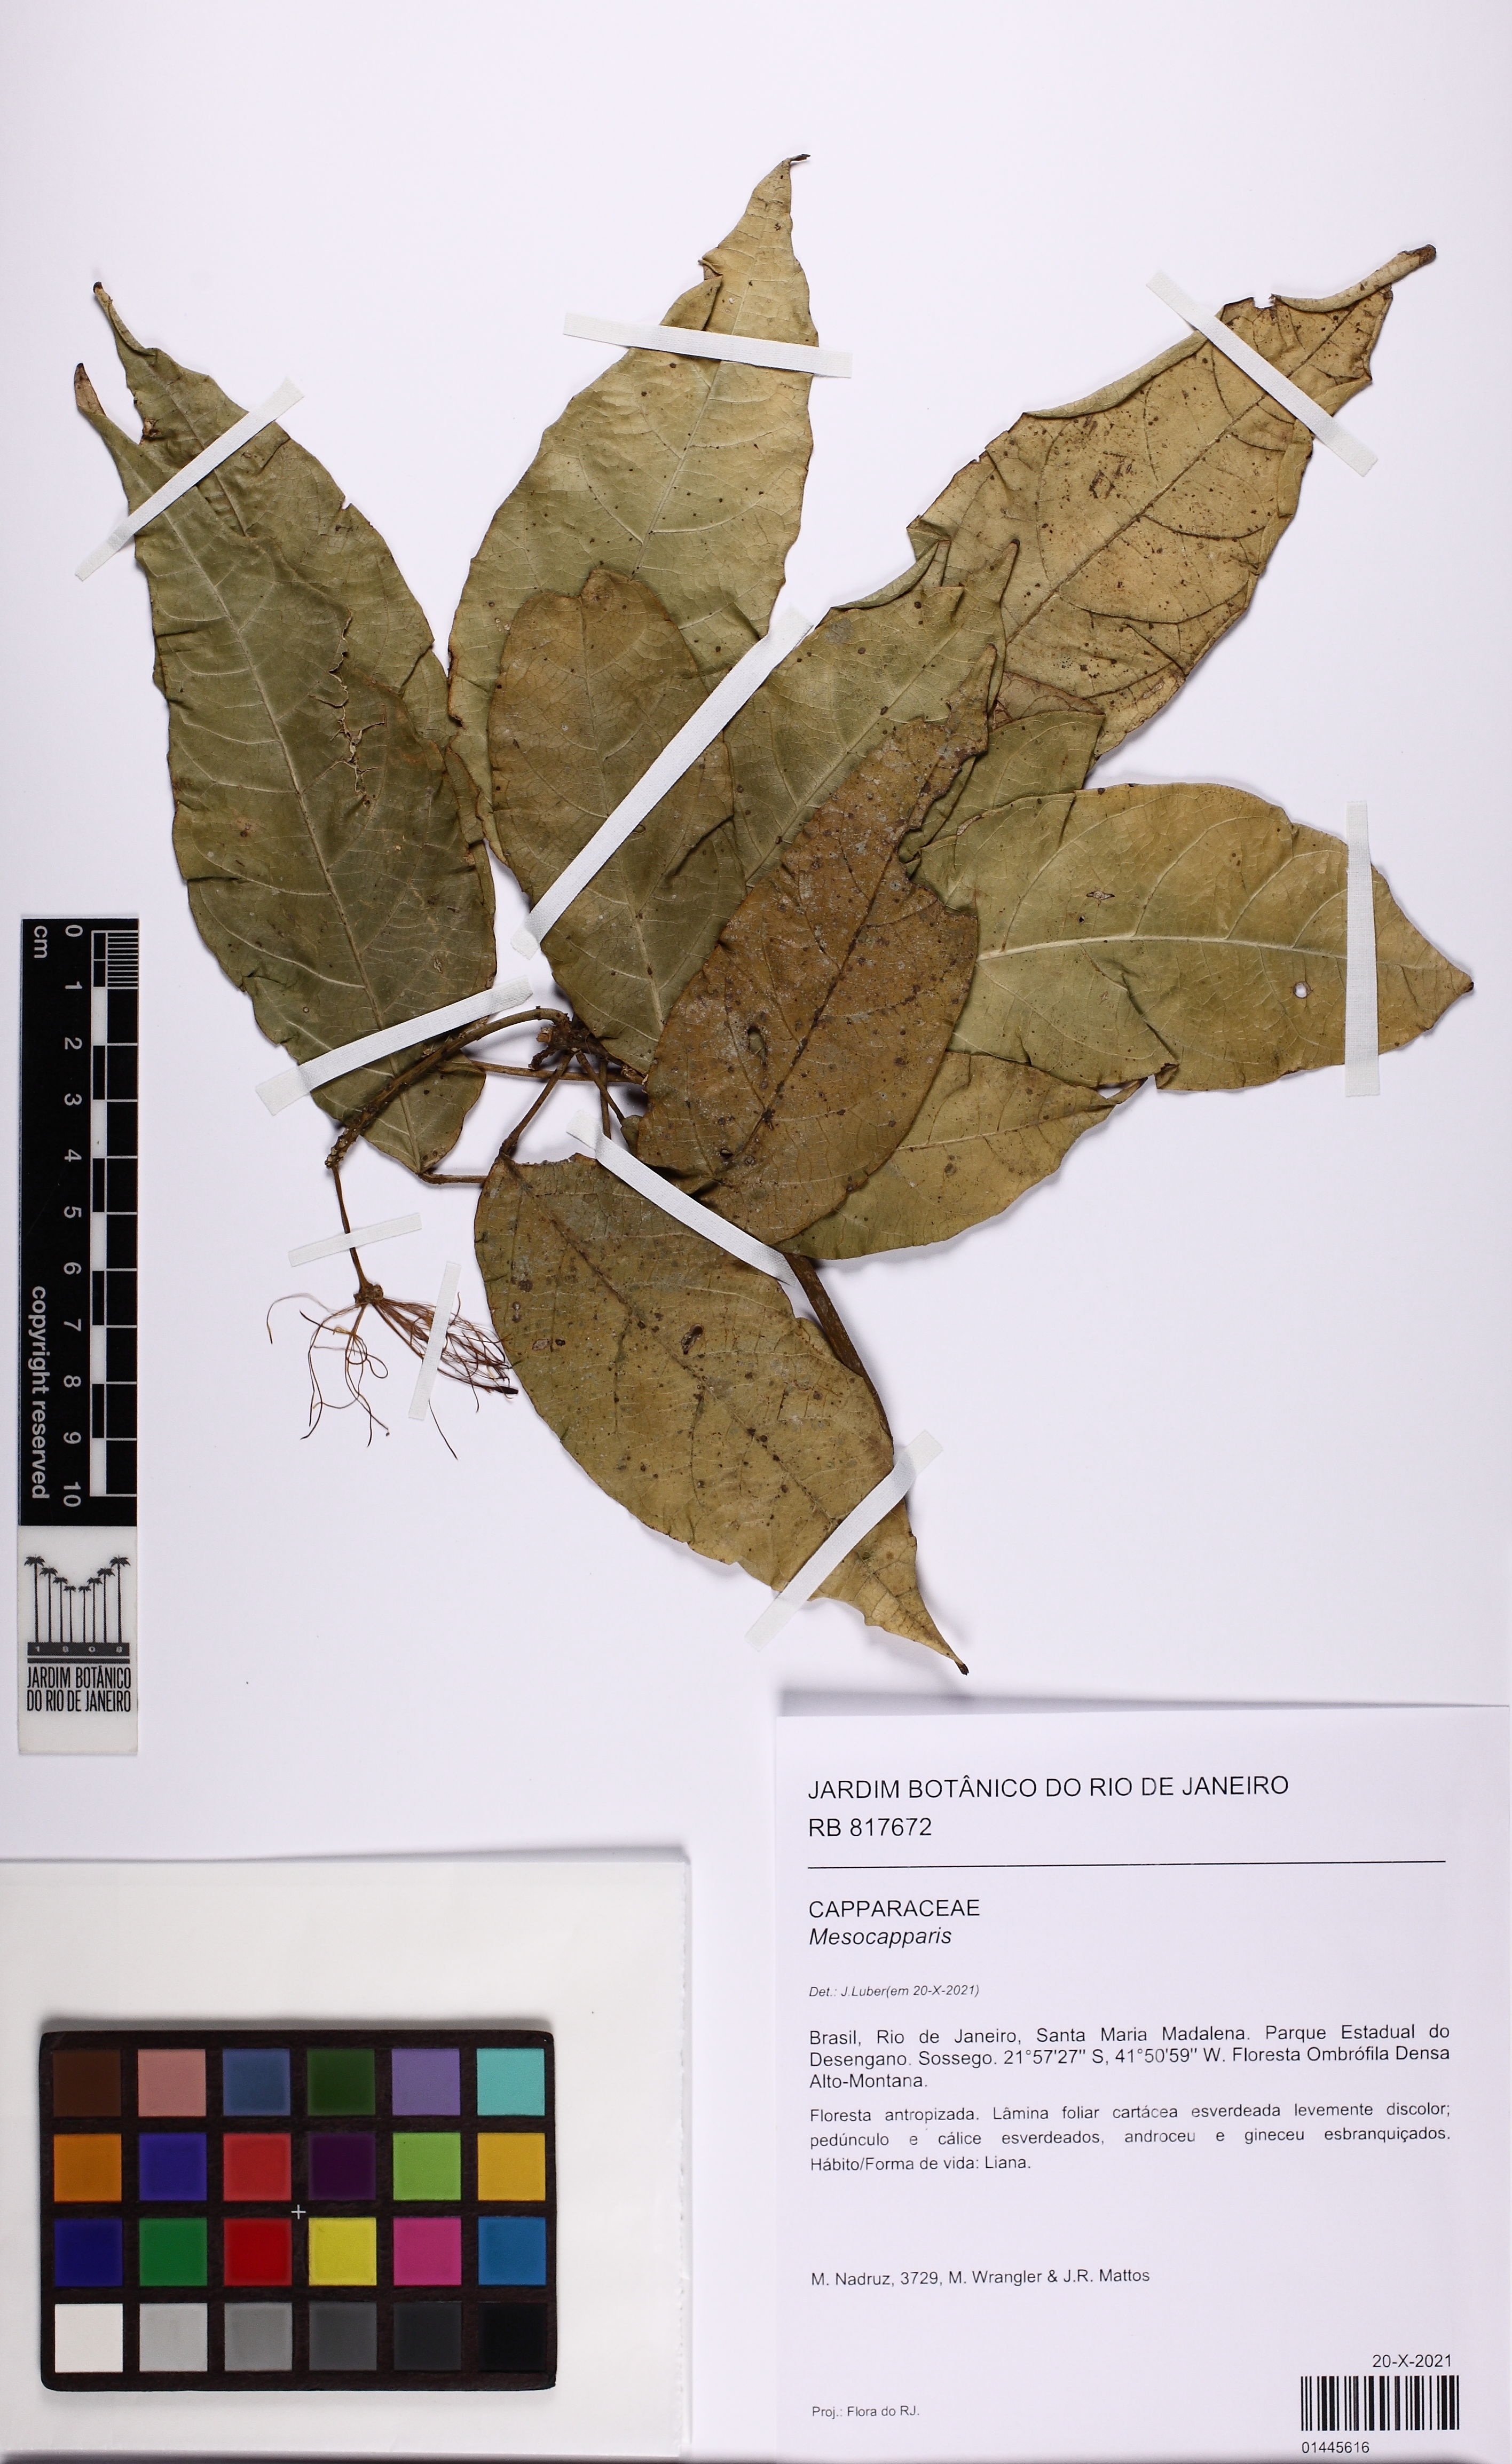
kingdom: Plantae
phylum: Tracheophyta
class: Magnoliopsida
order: Brassicales
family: Capparaceae
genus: Mesocapparis
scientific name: Mesocapparis
